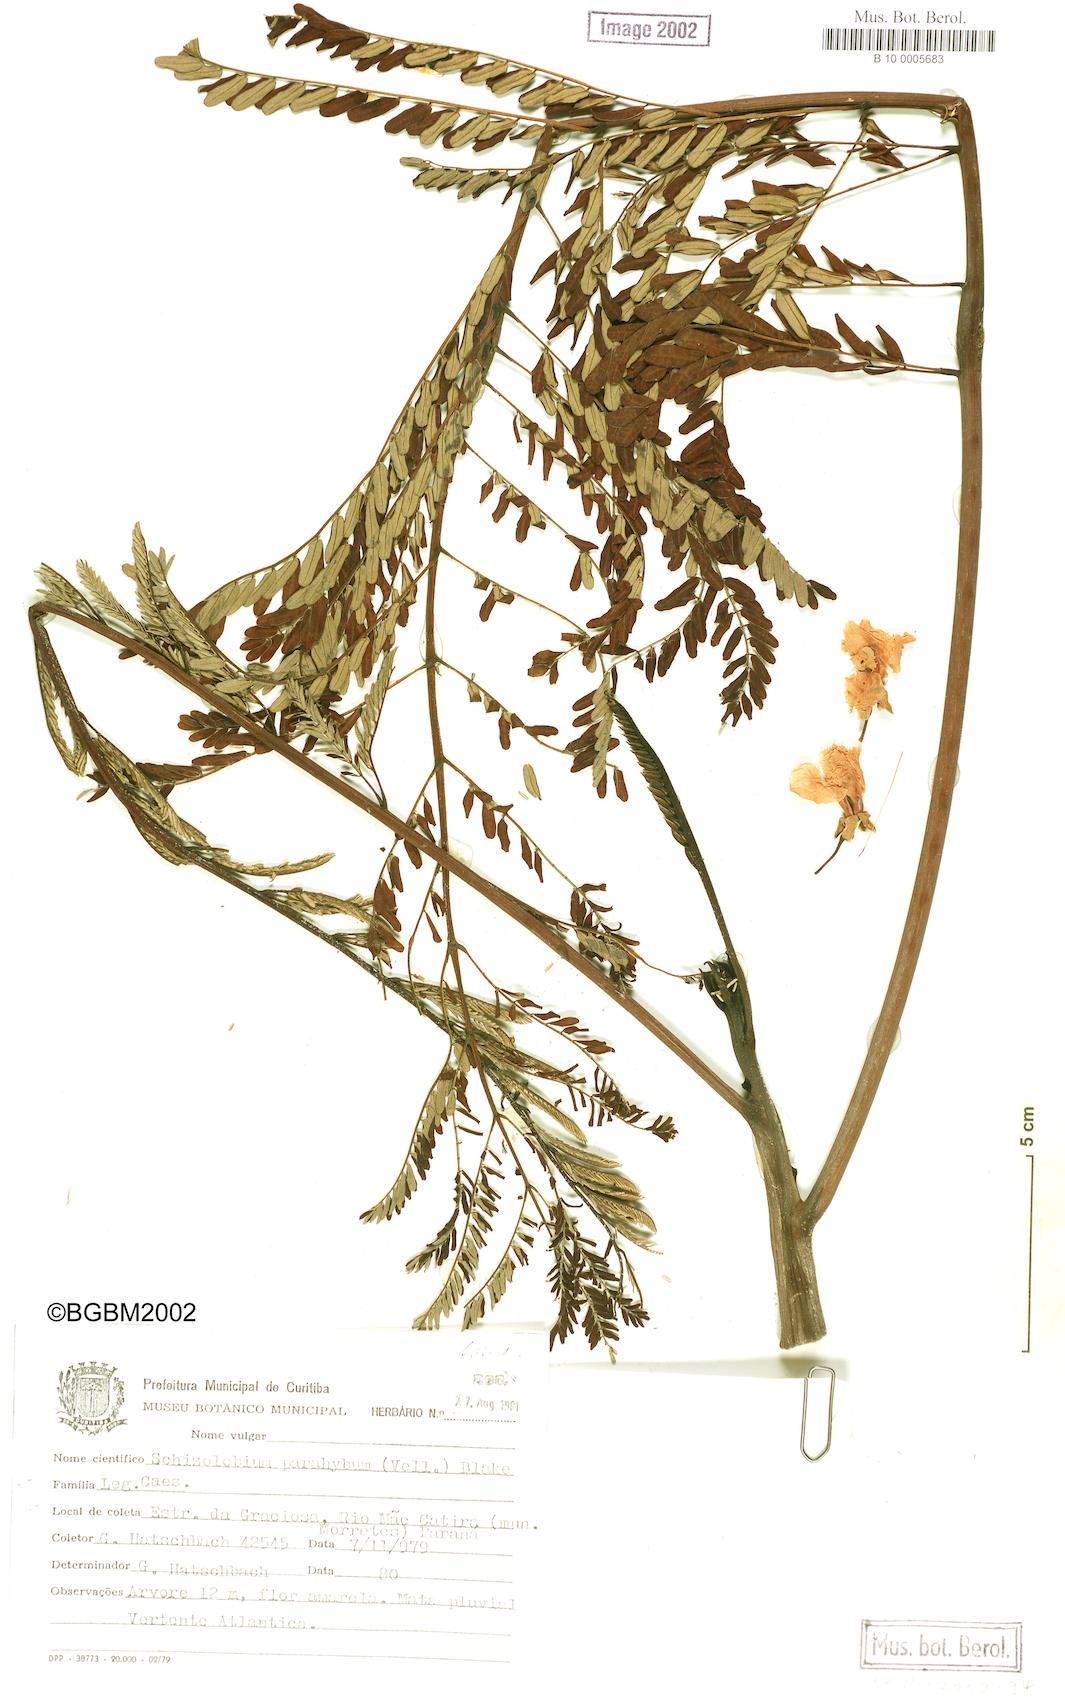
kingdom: Plantae
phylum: Tracheophyta
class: Magnoliopsida
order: Fabales
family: Fabaceae
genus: Schizolobium
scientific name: Schizolobium parahyba
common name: Brazilian firetree
